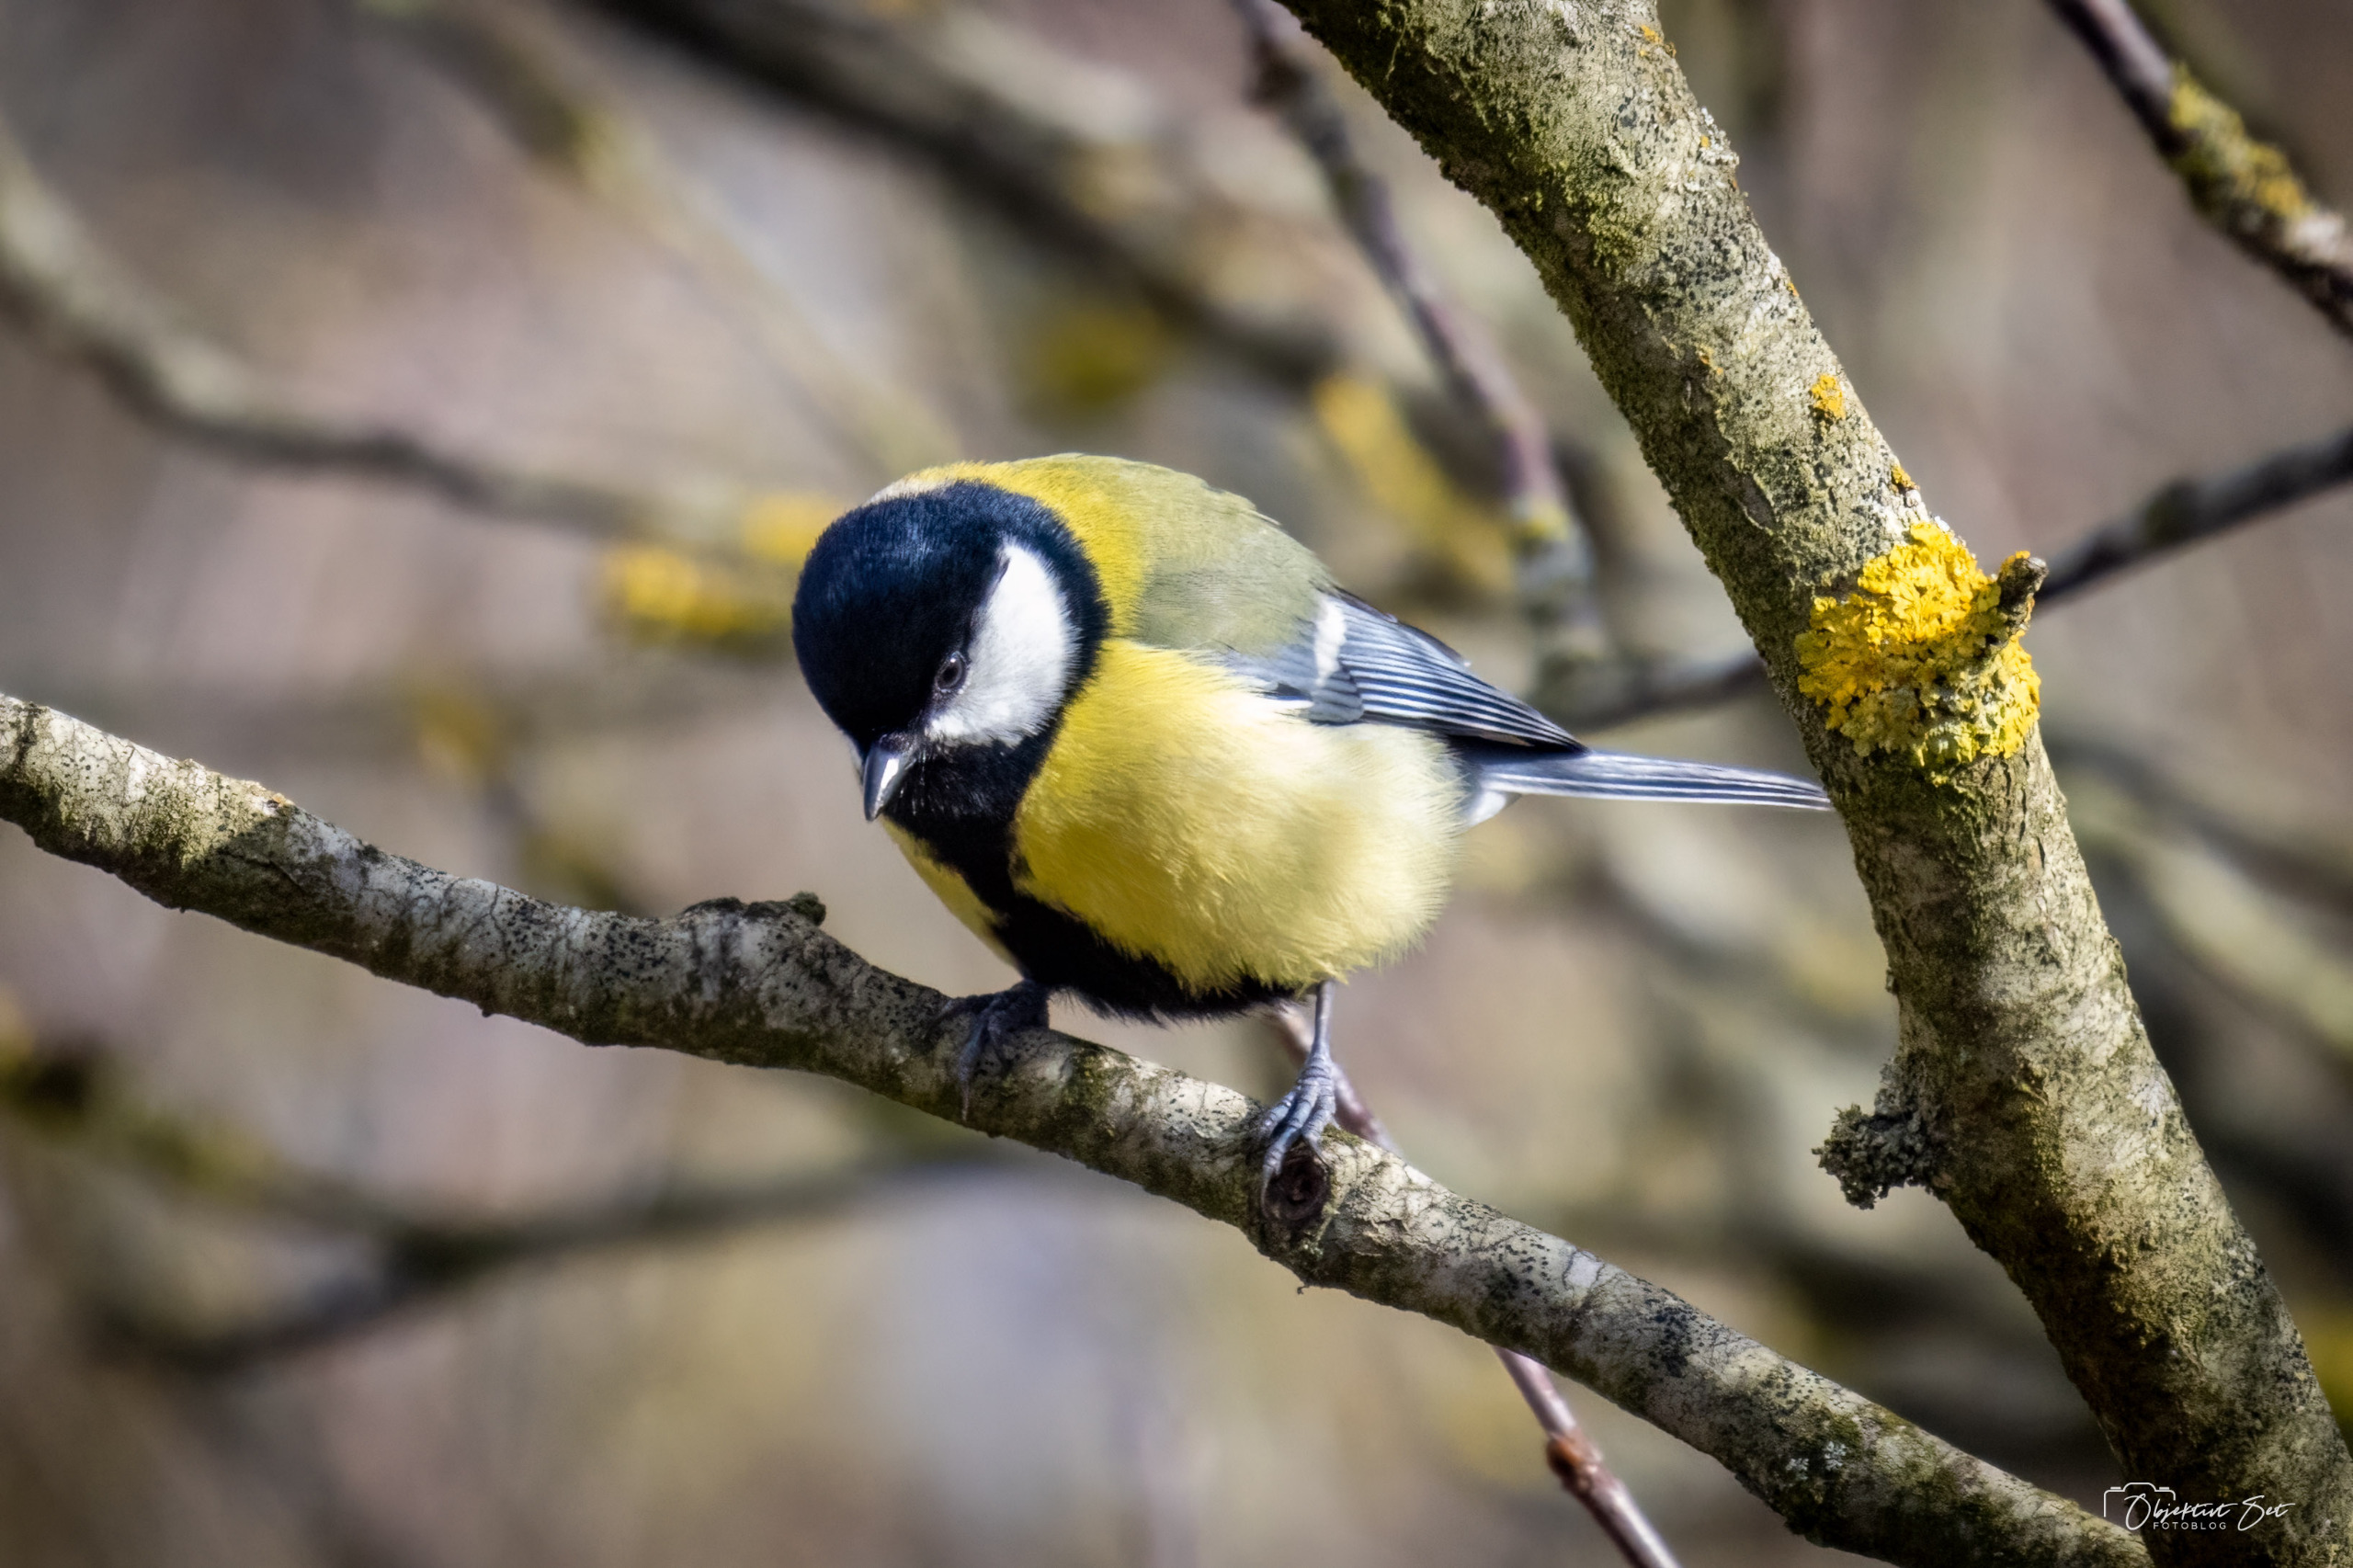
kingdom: Animalia
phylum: Chordata
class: Aves
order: Passeriformes
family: Paridae
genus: Parus
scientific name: Parus major
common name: Musvit
